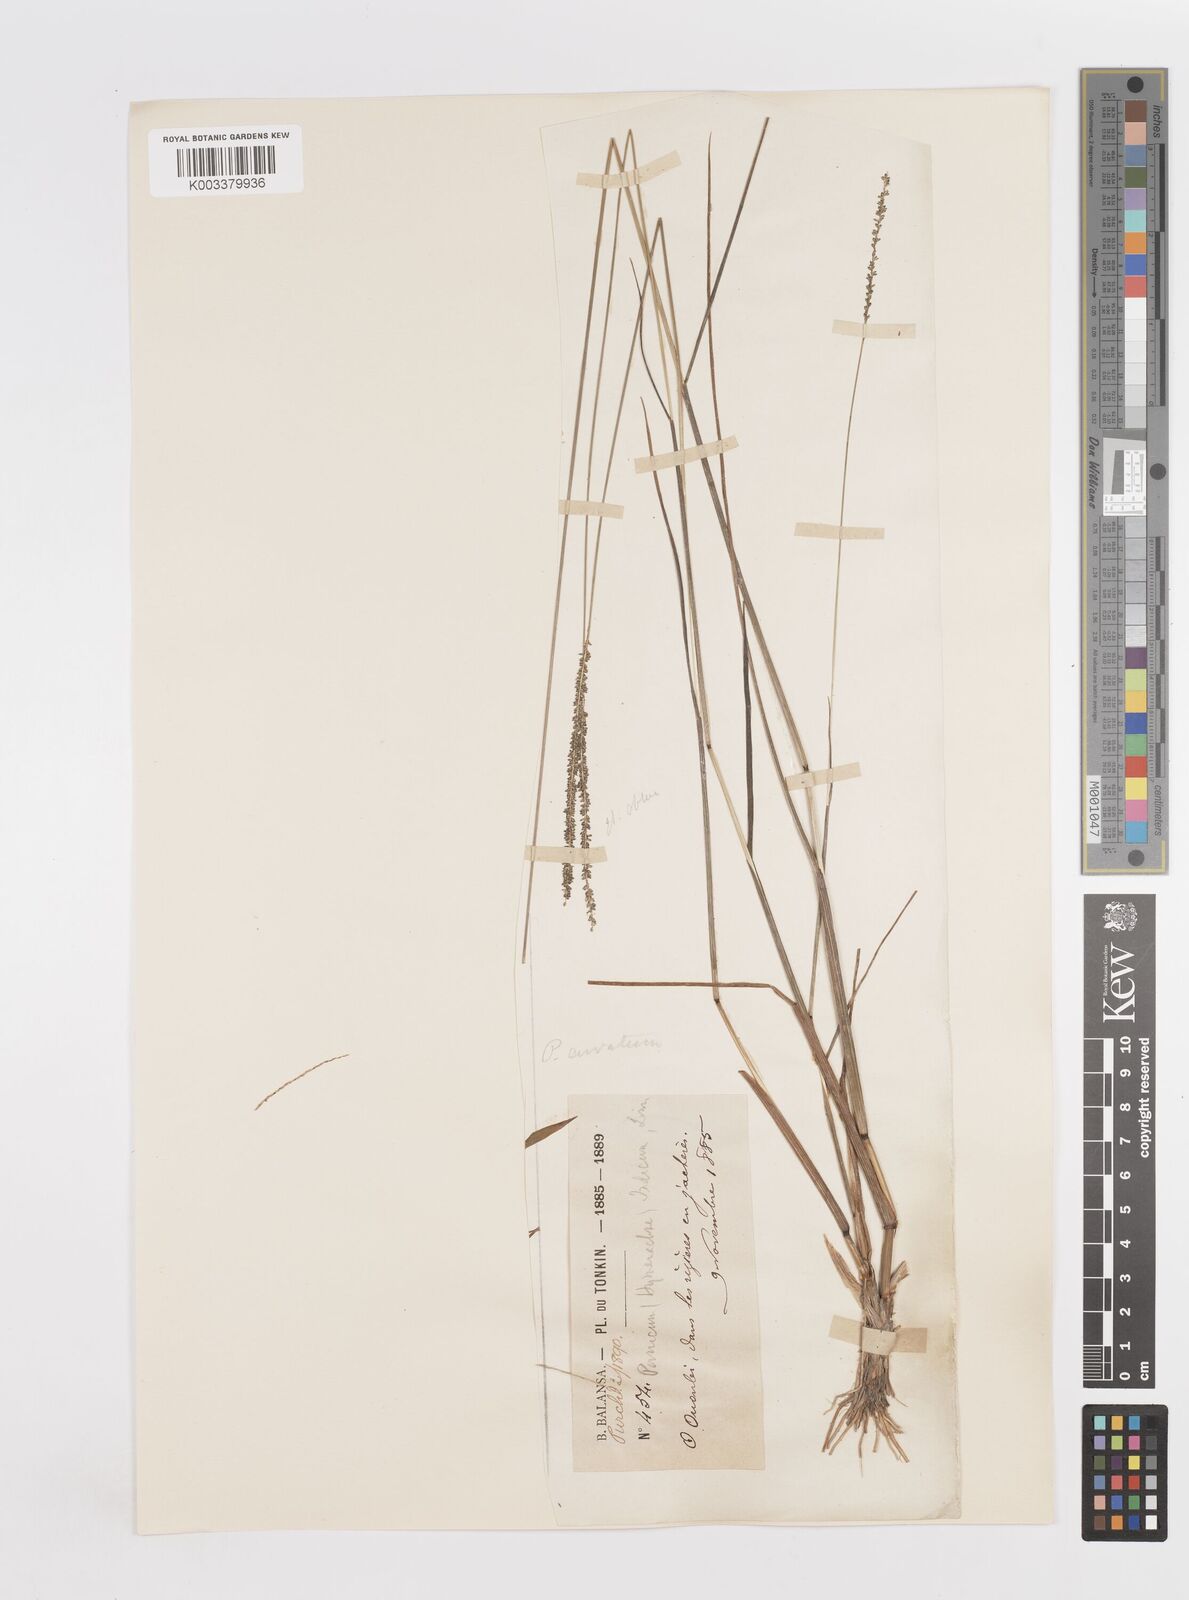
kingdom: Plantae
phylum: Tracheophyta
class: Liliopsida
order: Poales
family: Poaceae
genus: Sacciolepis
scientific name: Sacciolepis myosuroides
